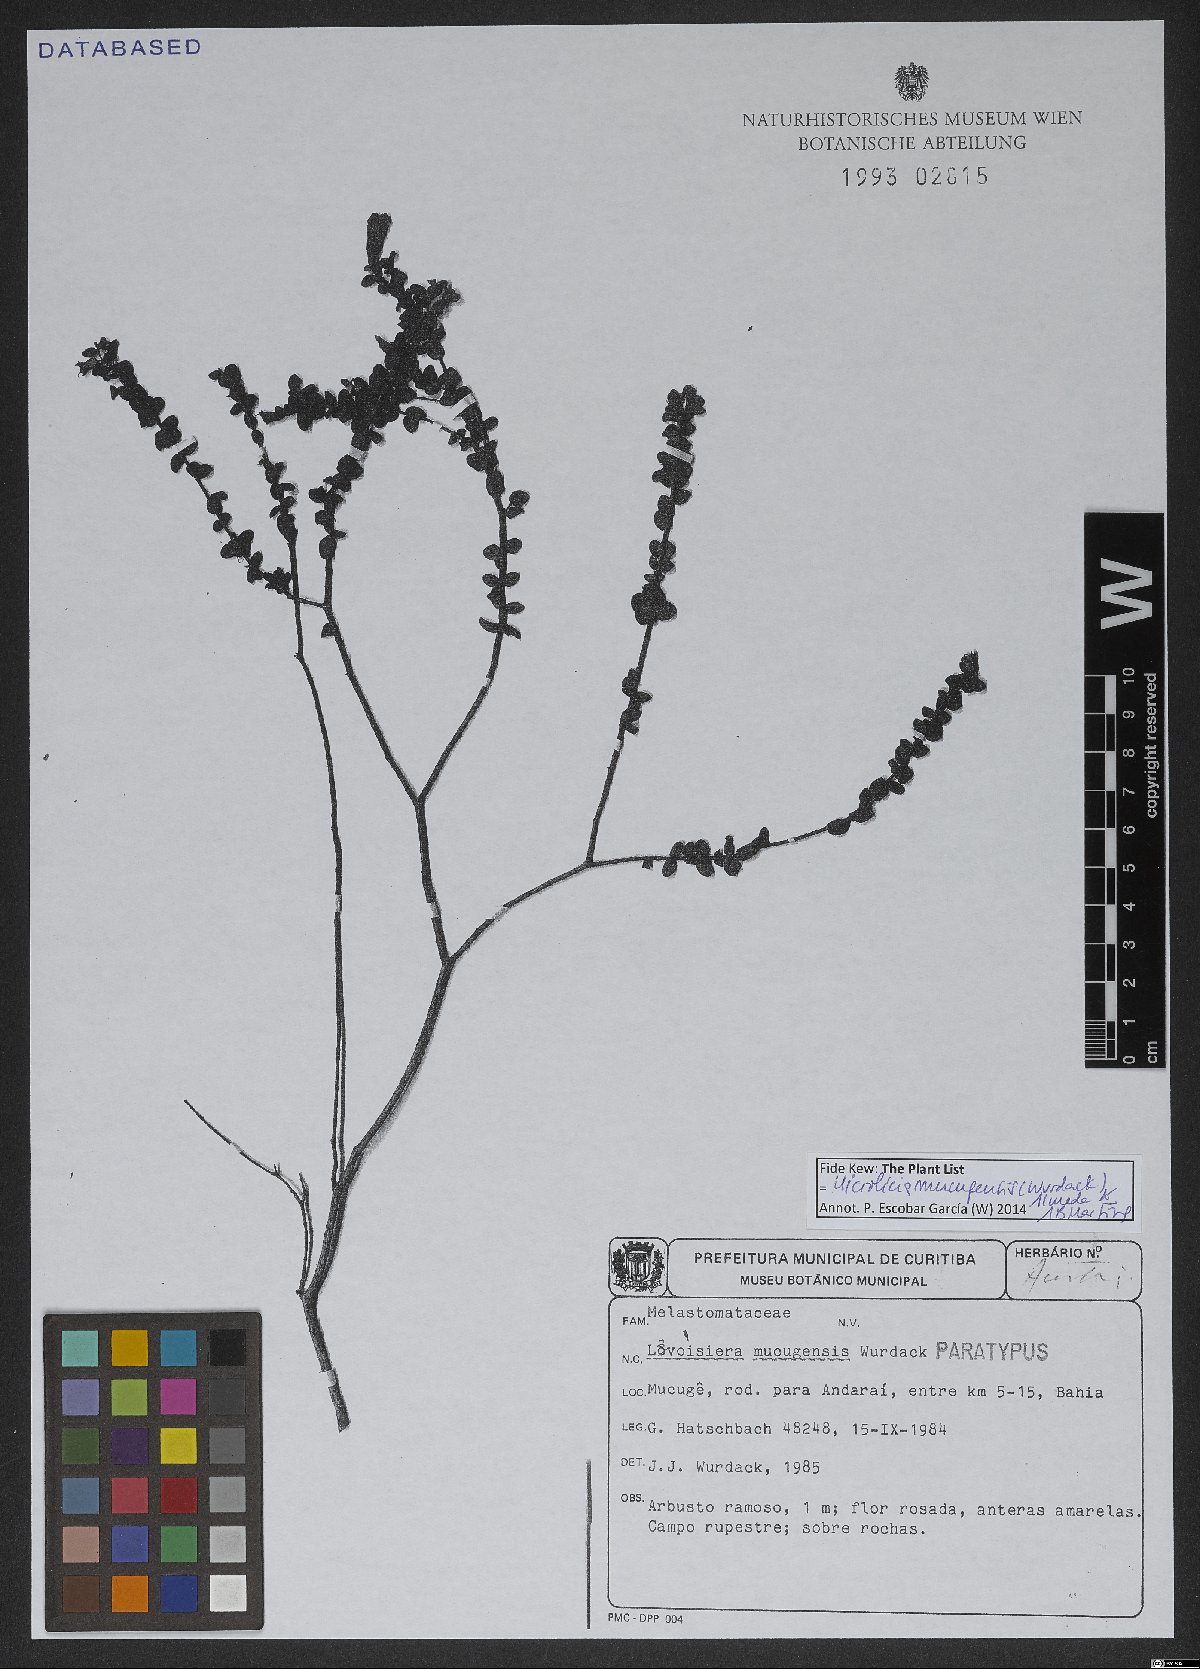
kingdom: Plantae
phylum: Tracheophyta
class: Magnoliopsida
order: Myrtales
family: Melastomataceae
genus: Microlicia
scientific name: Microlicia mucugensis
